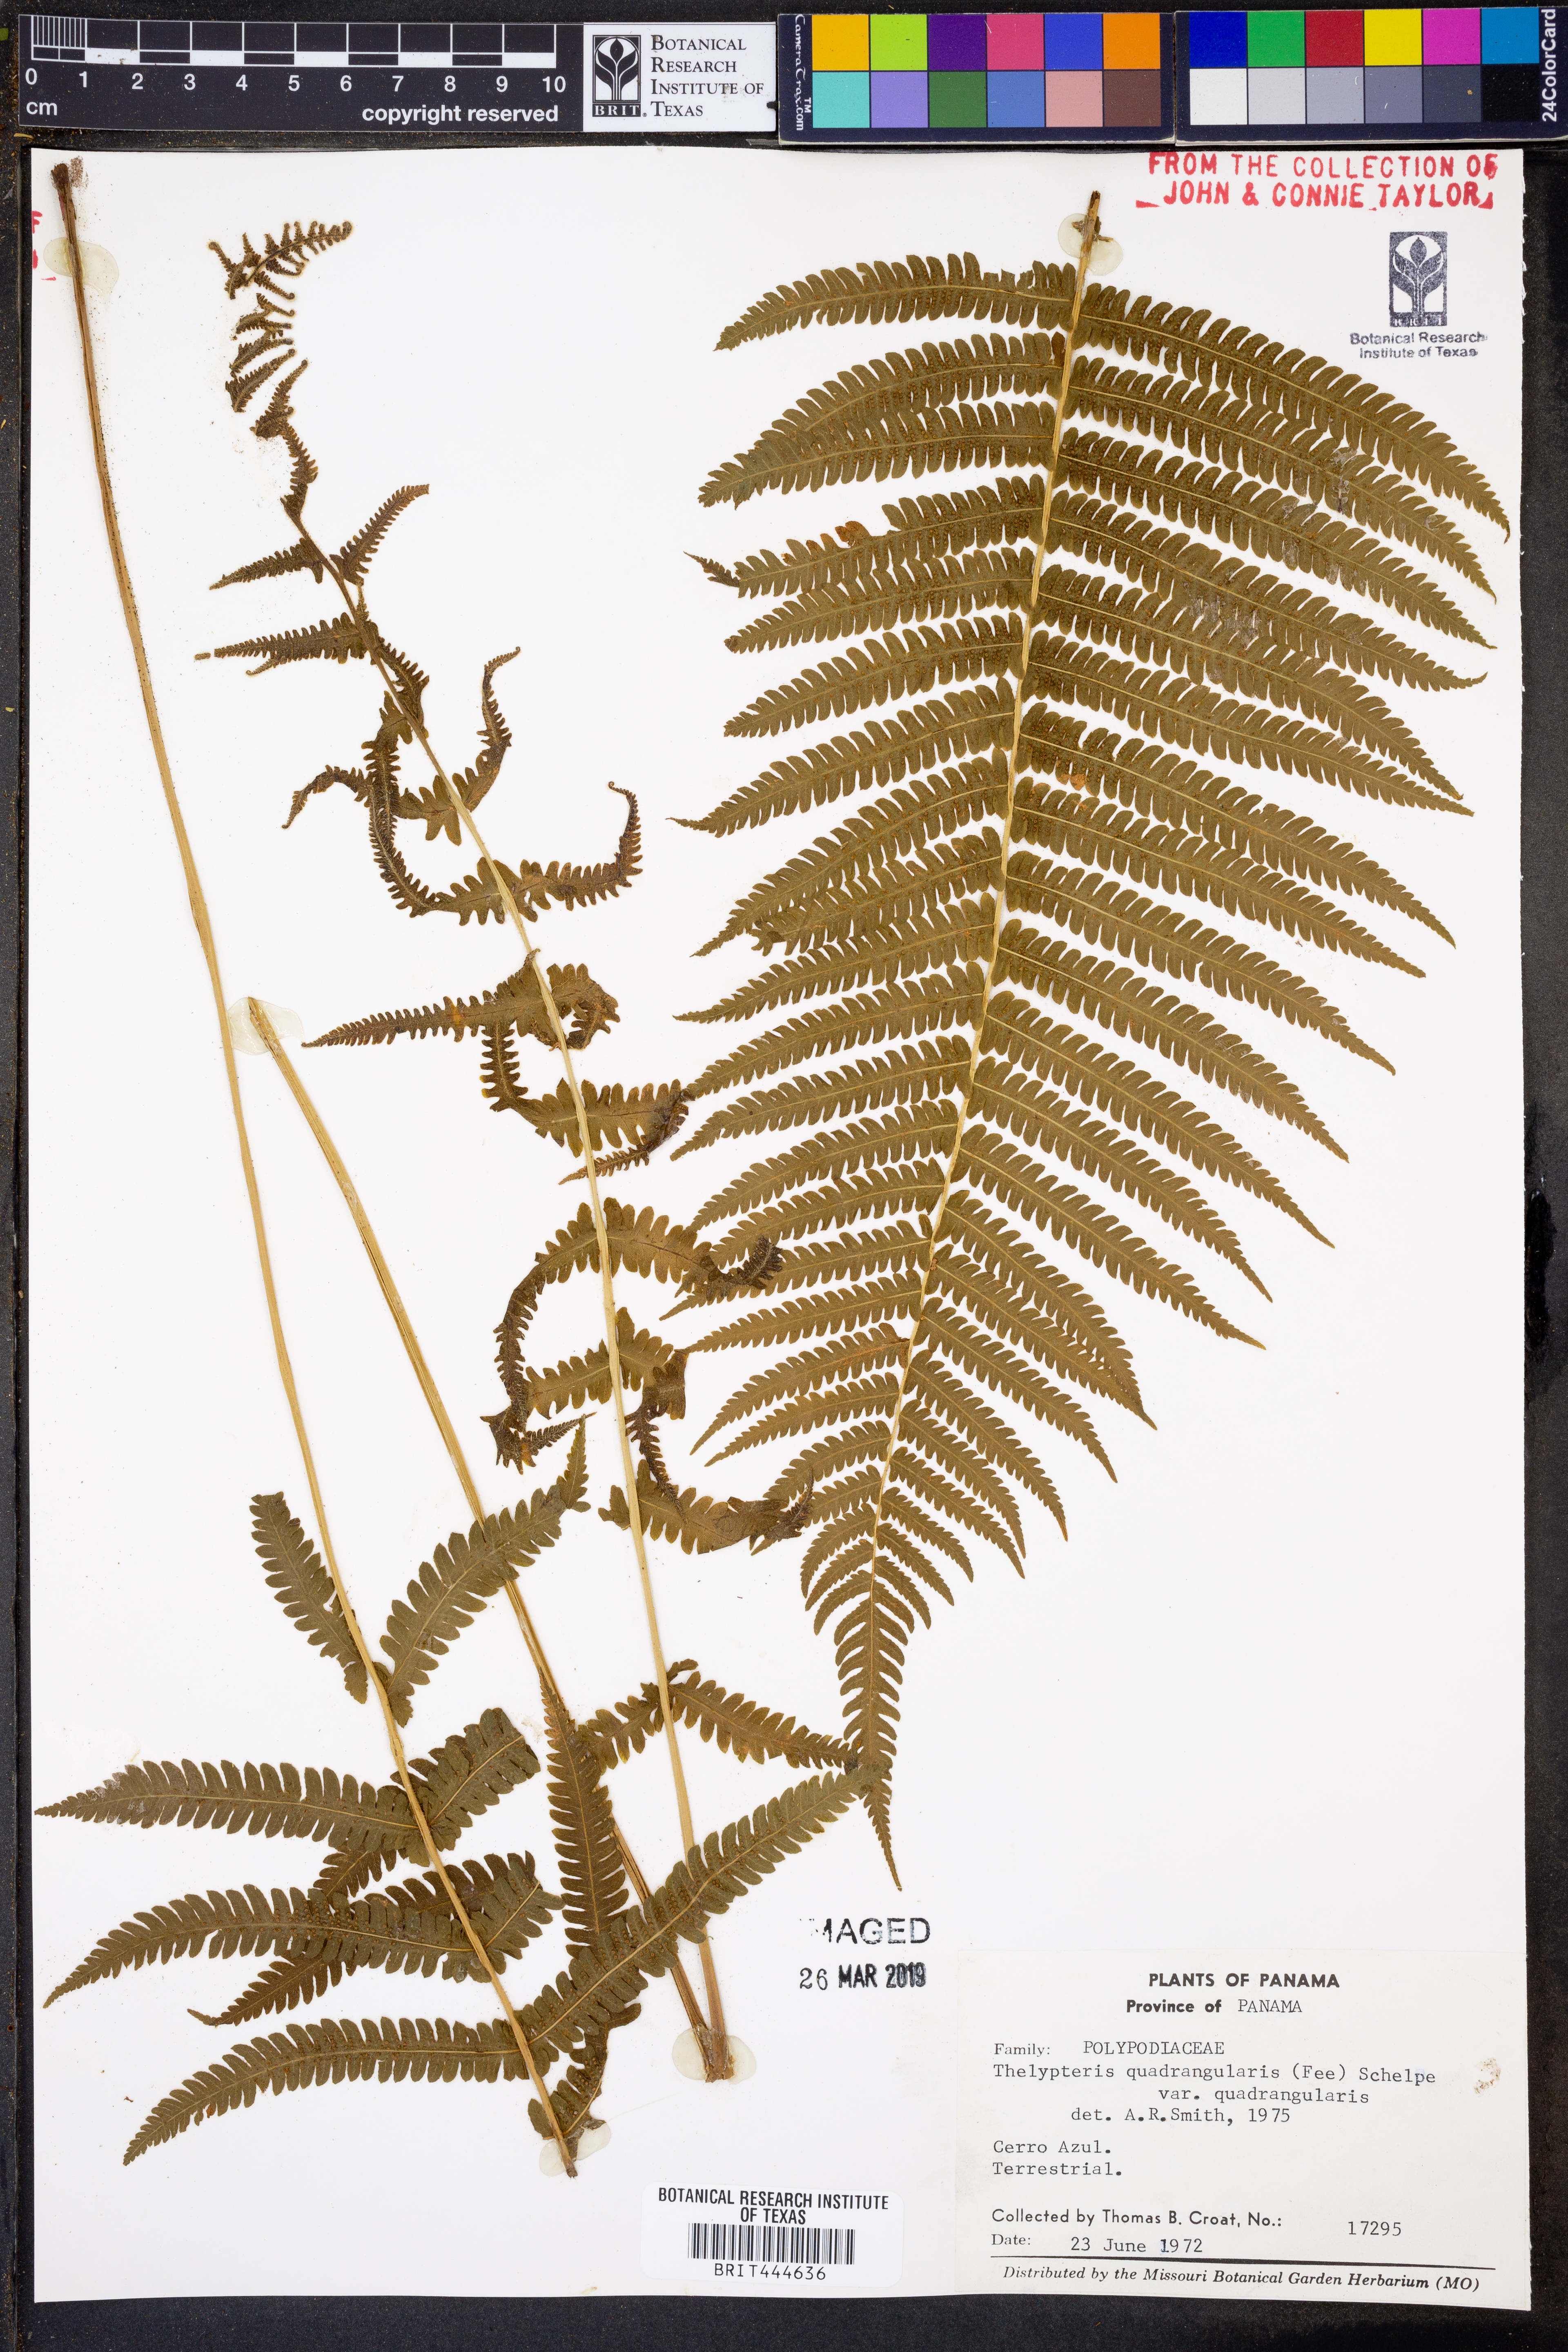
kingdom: Plantae
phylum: Tracheophyta
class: Polypodiopsida
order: Polypodiales
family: Thelypteridaceae
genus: Christella
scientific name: Christella hispidula
